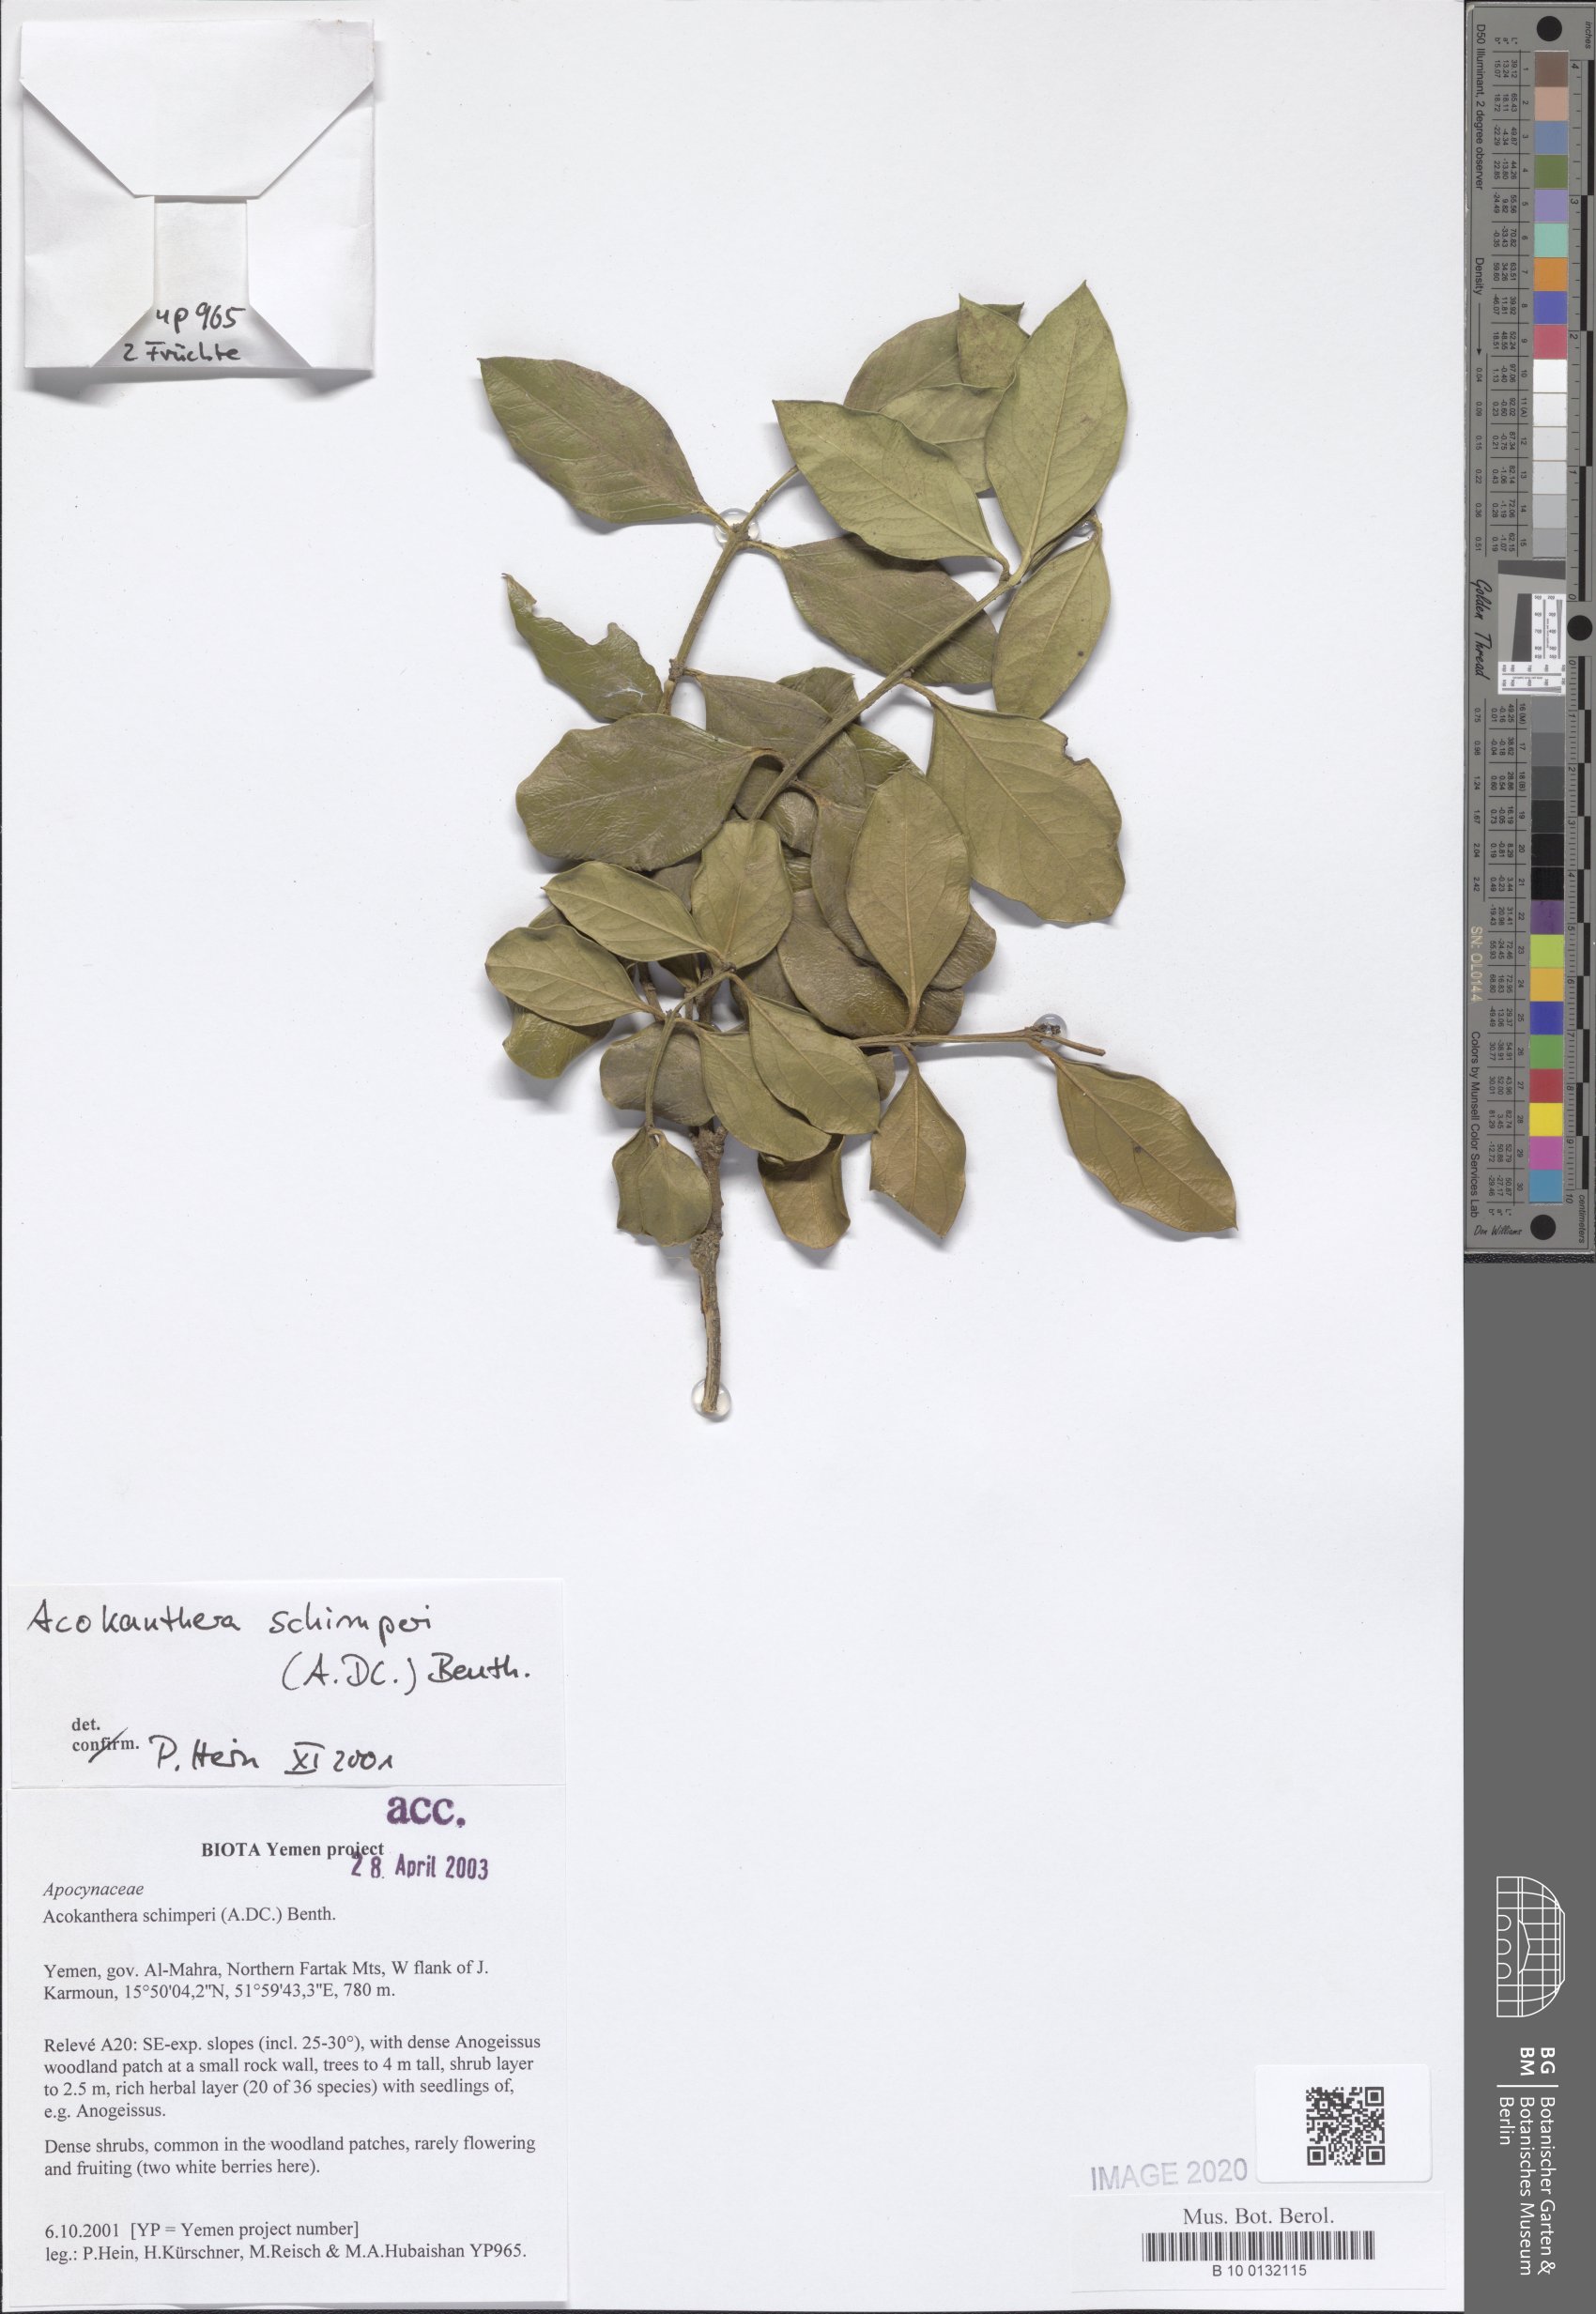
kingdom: Plantae
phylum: Tracheophyta
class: Magnoliopsida
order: Gentianales
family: Apocynaceae
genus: Acokanthera
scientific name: Acokanthera schimperi
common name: Arrow-poison-tree
